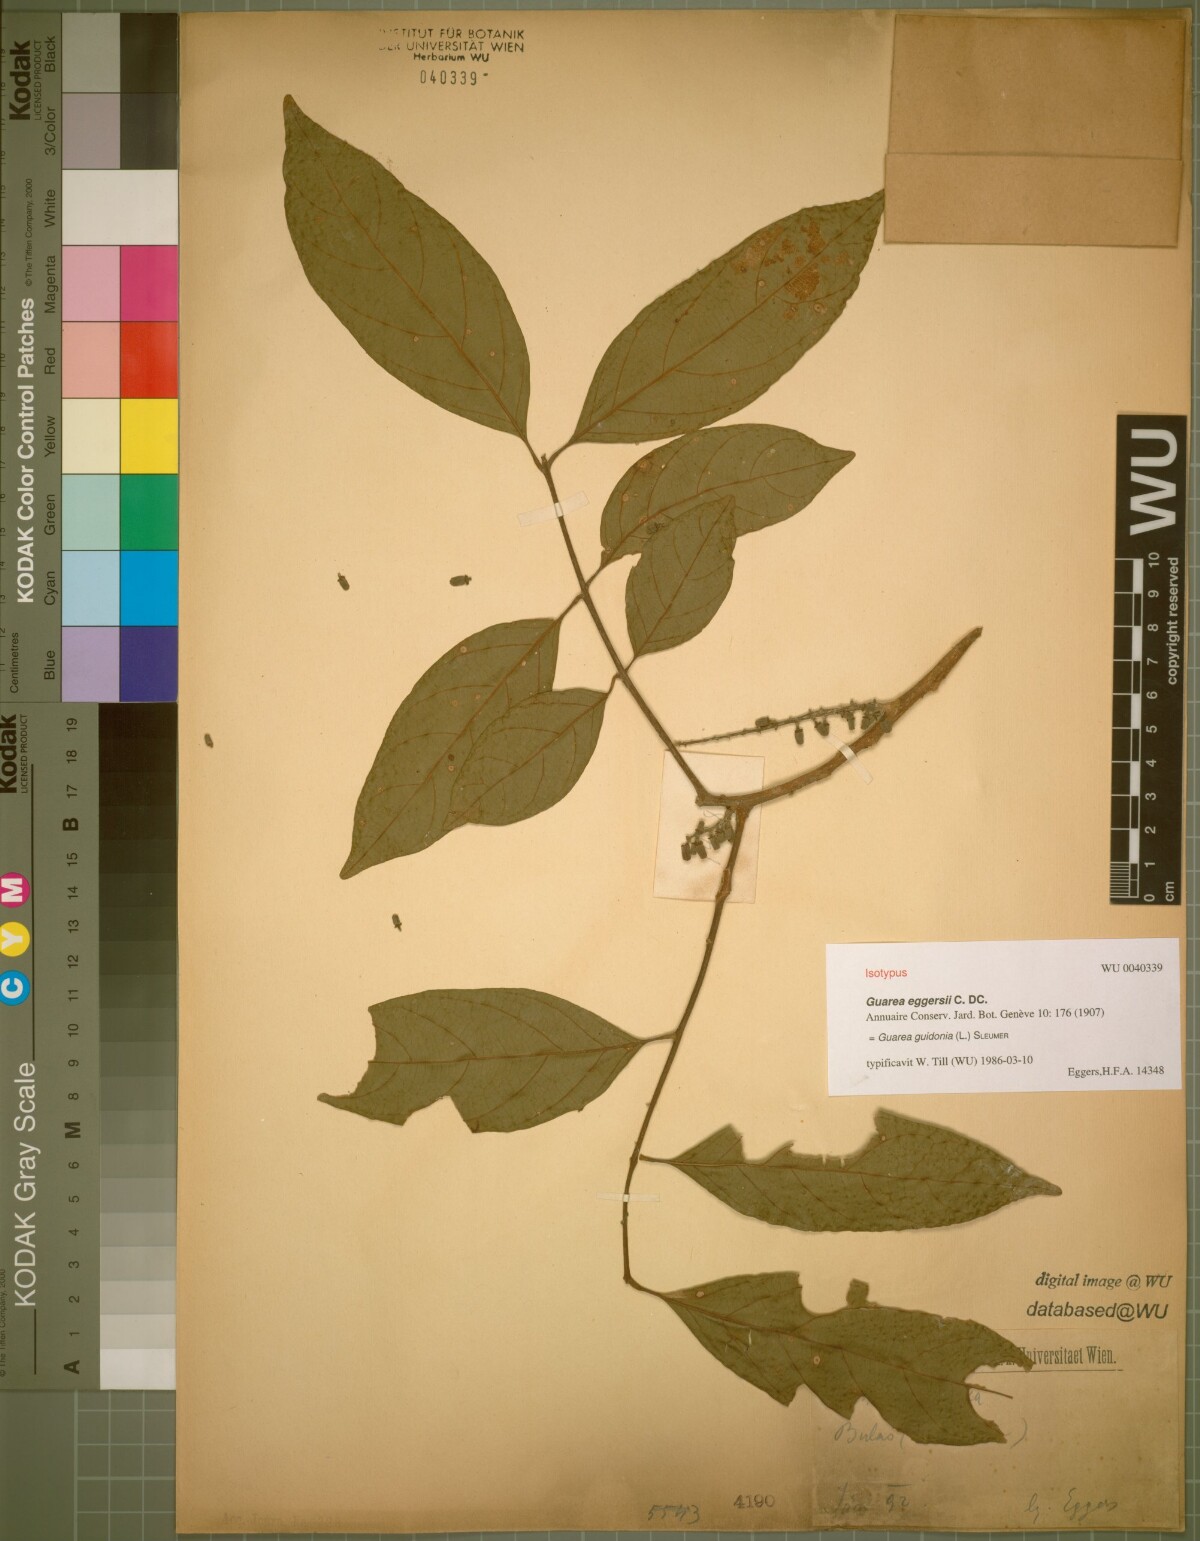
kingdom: Plantae
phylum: Tracheophyta
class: Magnoliopsida
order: Sapindales
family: Meliaceae
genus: Guarea
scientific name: Guarea guidonia
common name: American muskwood
